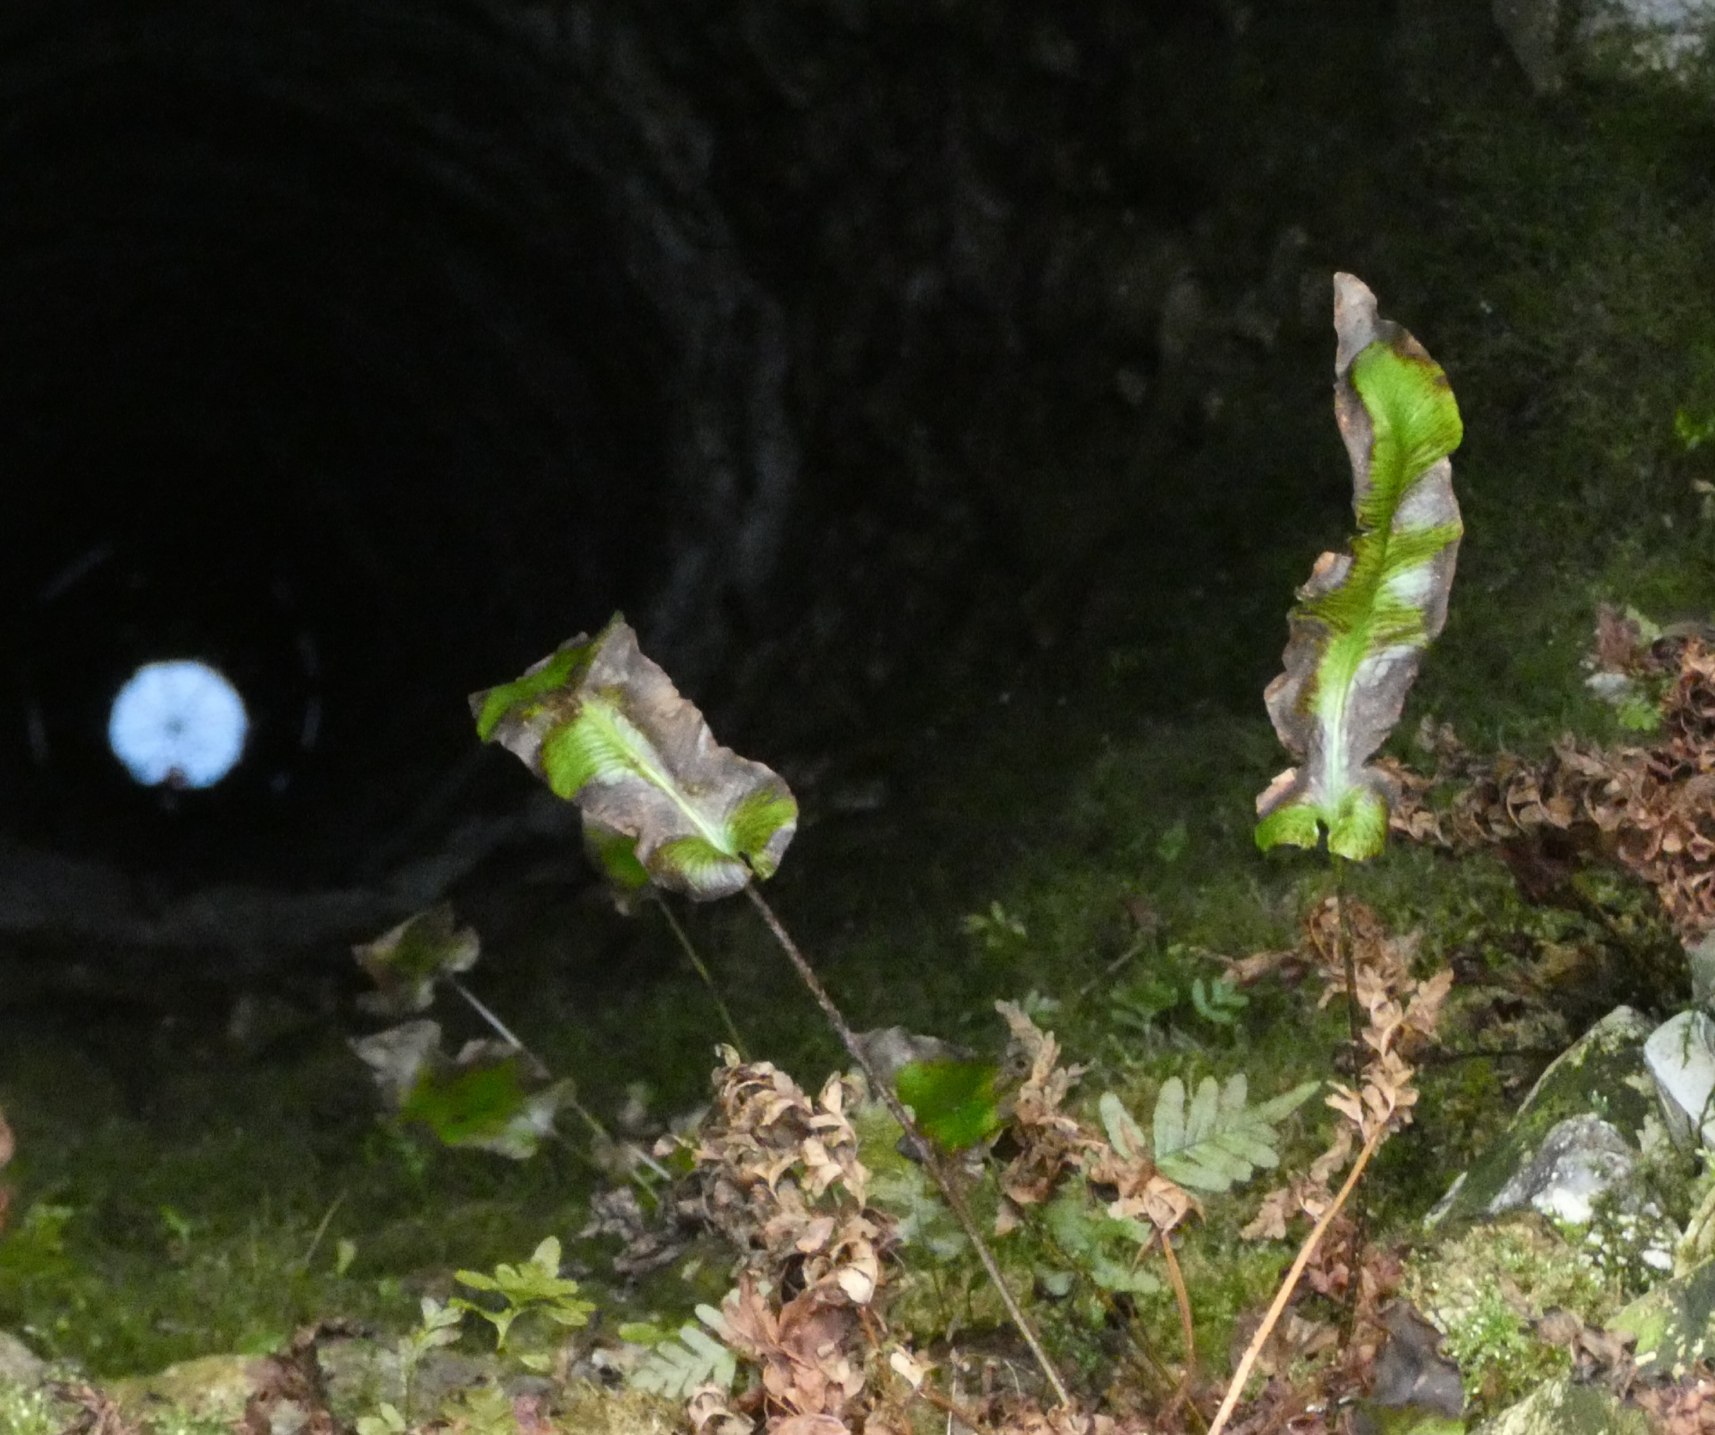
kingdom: Plantae
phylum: Tracheophyta
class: Polypodiopsida
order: Polypodiales
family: Aspleniaceae
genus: Asplenium
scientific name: Asplenium scolopendrium
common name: Hjortetunge
